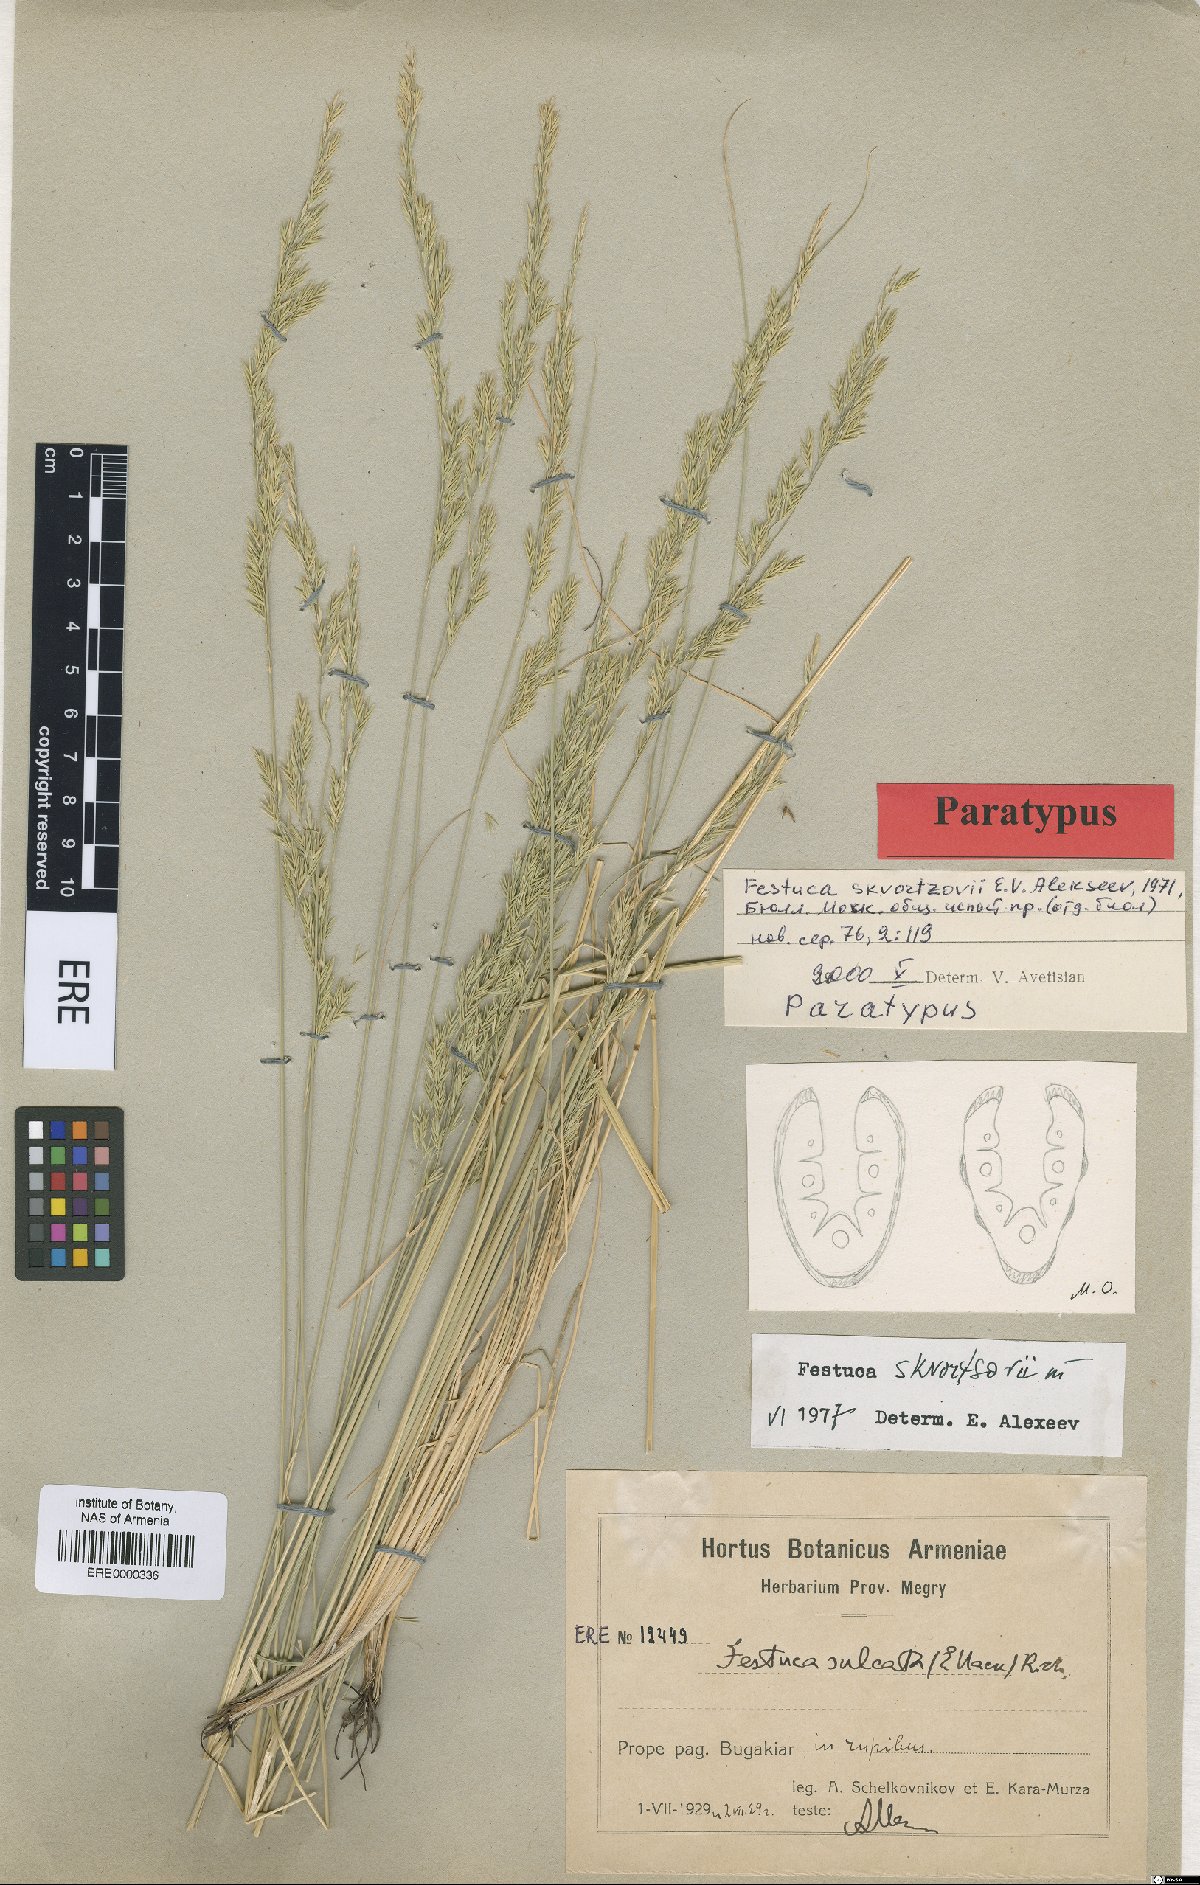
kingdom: Plantae
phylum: Tracheophyta
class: Liliopsida
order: Poales
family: Poaceae
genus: Festuca
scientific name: Festuca skvortsovii
